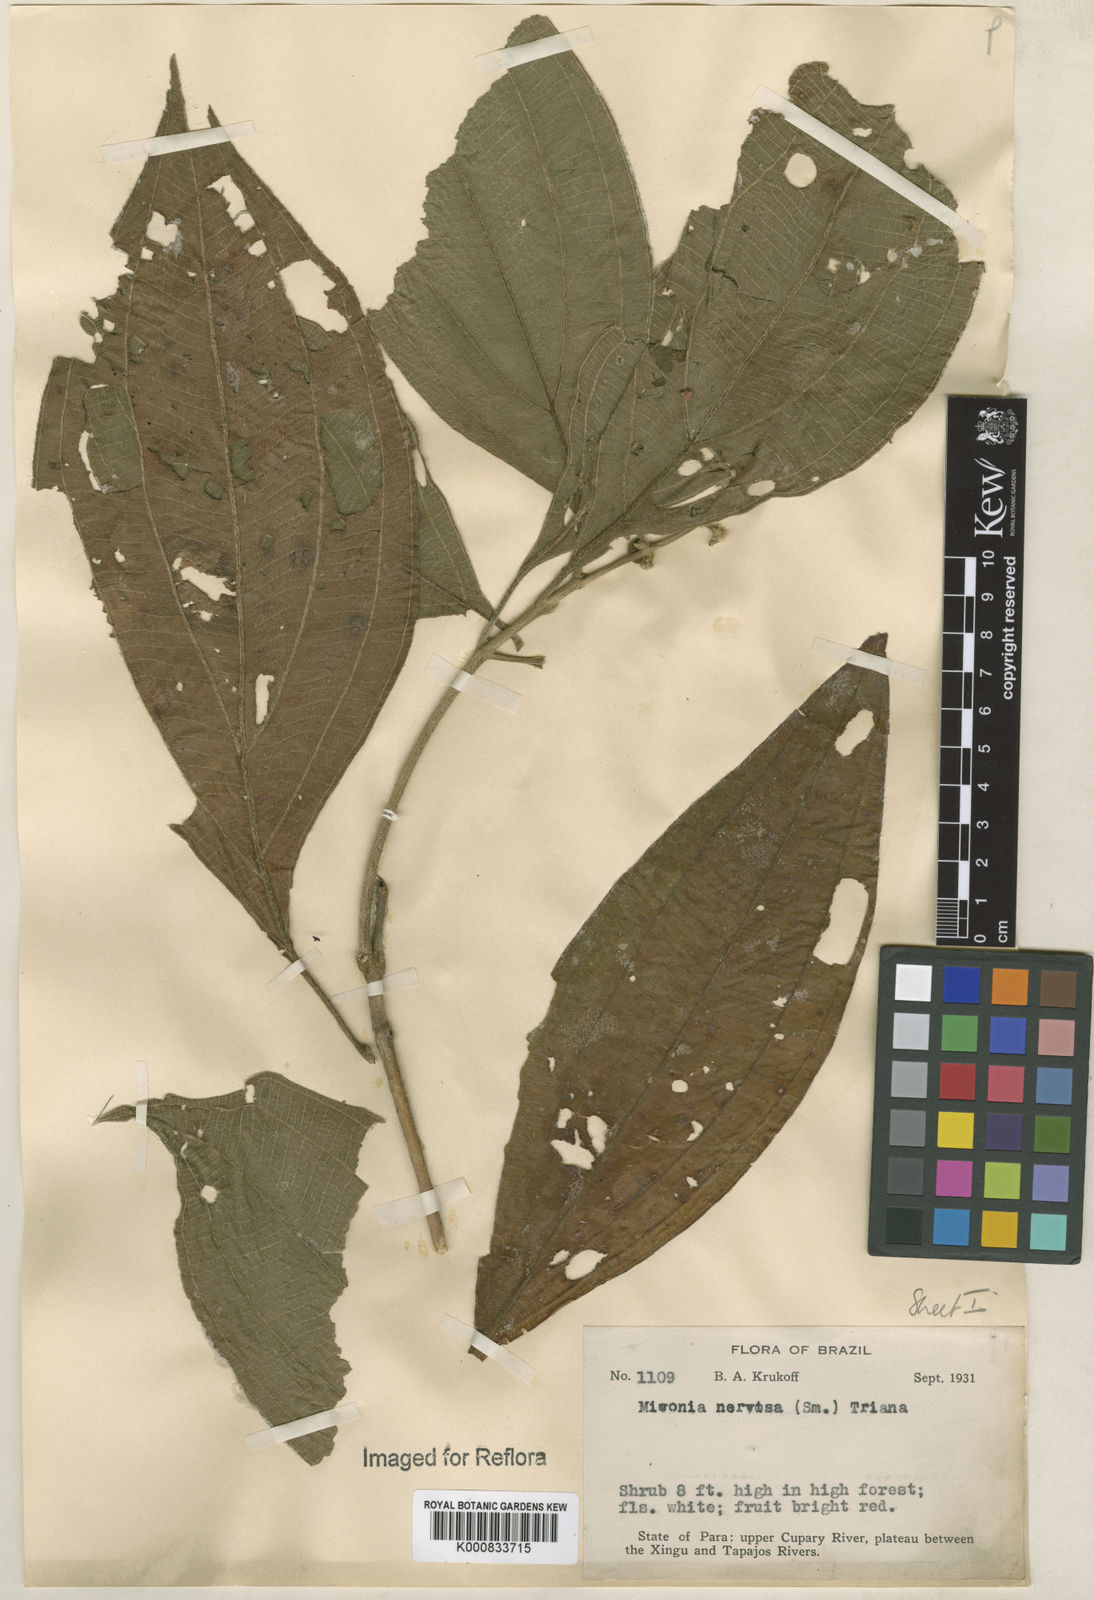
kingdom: Plantae
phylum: Tracheophyta
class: Magnoliopsida
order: Myrtales
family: Melastomataceae
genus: Miconia
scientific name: Miconia nervosa
